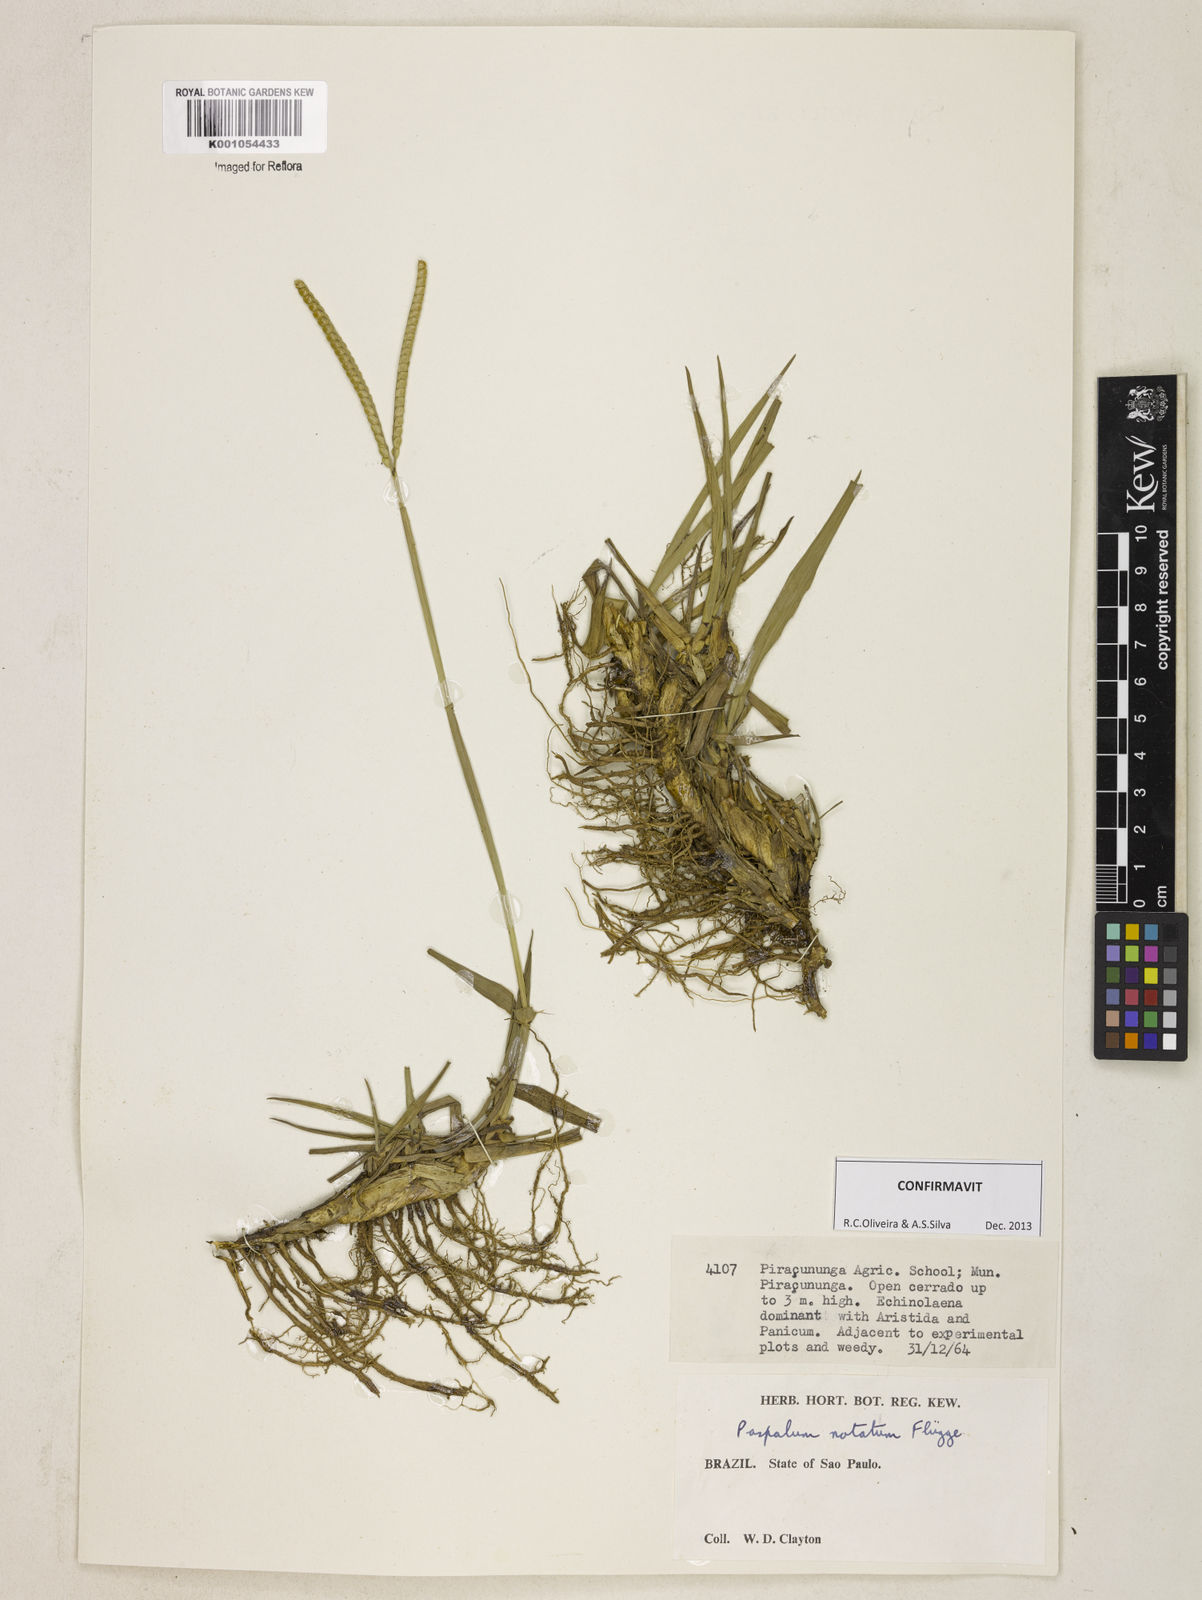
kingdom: Plantae
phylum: Tracheophyta
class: Liliopsida
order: Poales
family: Poaceae
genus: Paspalum
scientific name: Paspalum
